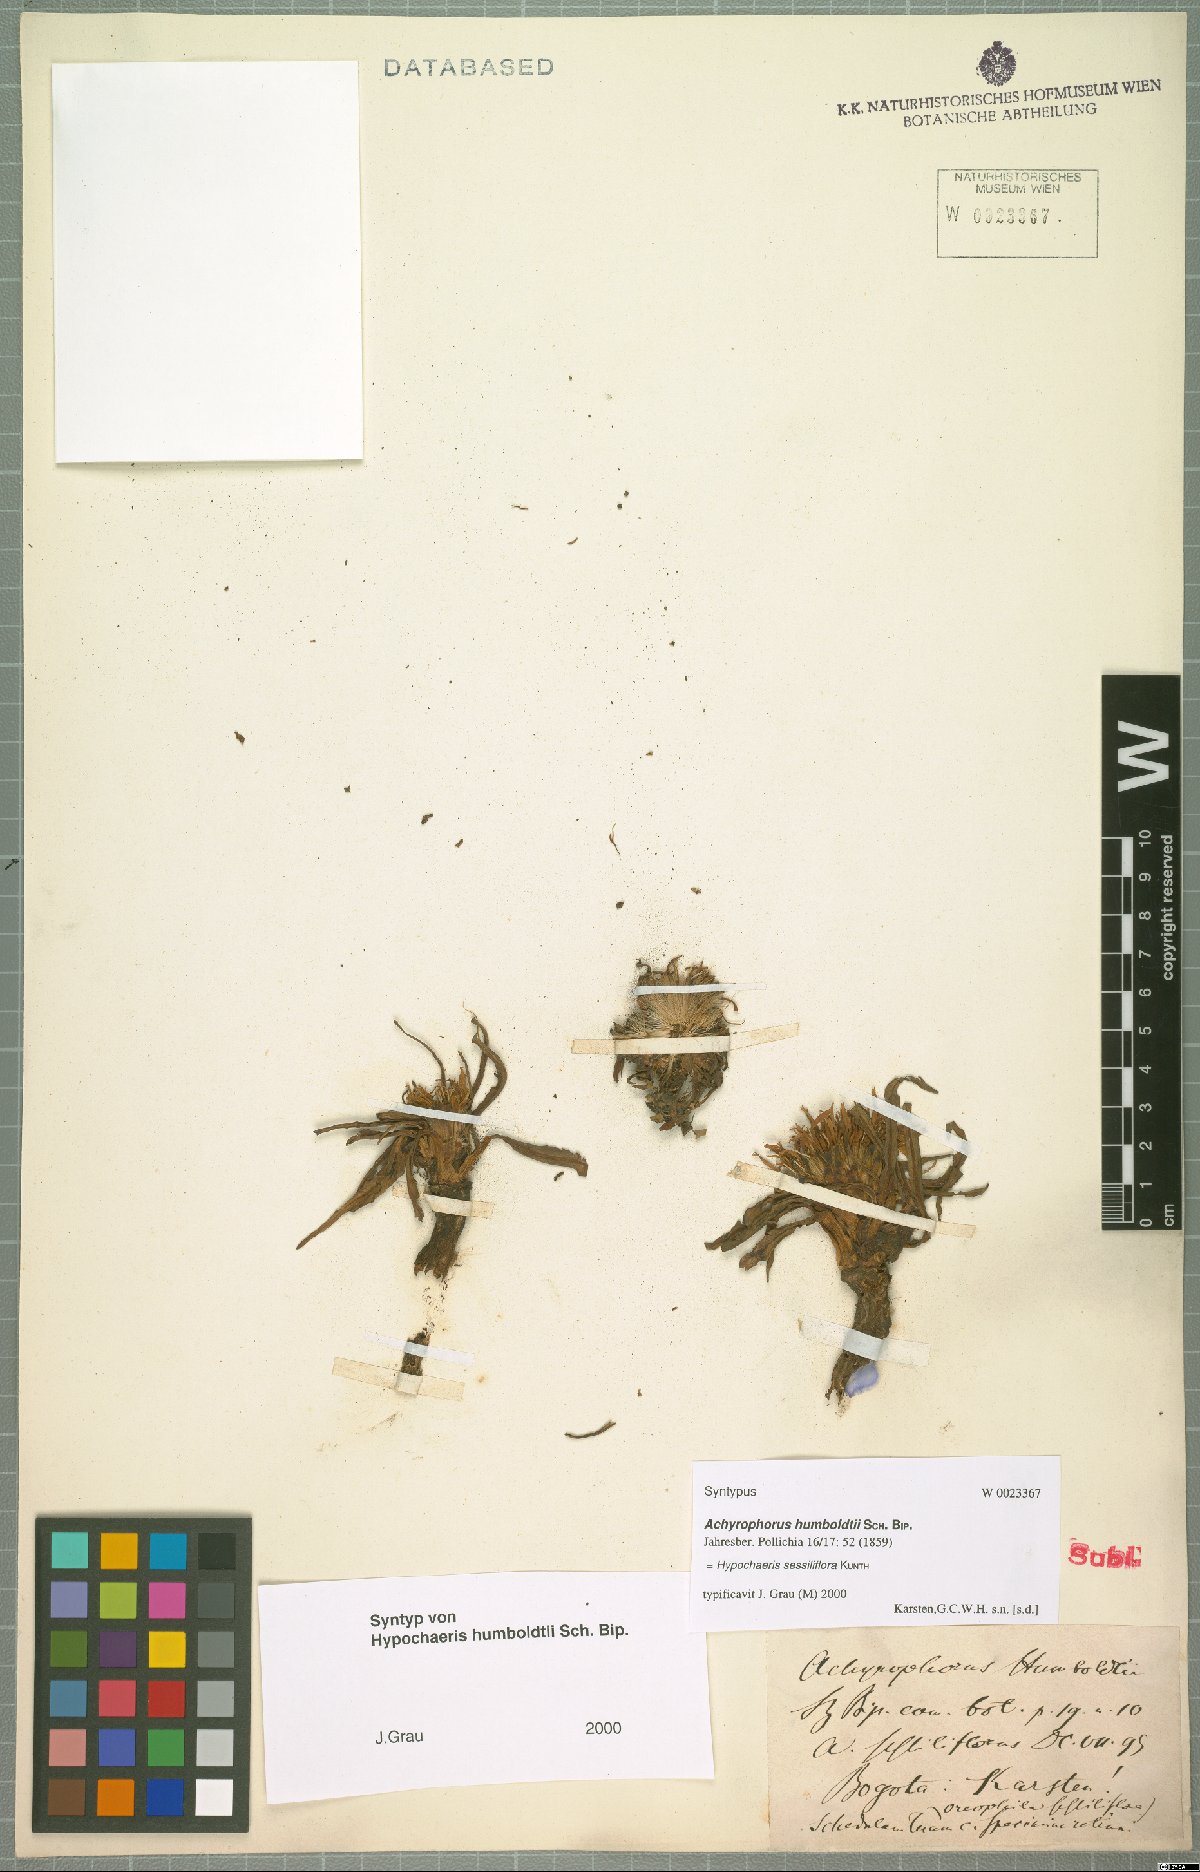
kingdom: Plantae
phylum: Tracheophyta
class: Magnoliopsida
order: Asterales
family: Asteraceae
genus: Hypochaeris
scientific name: Hypochaeris sessiliflora
